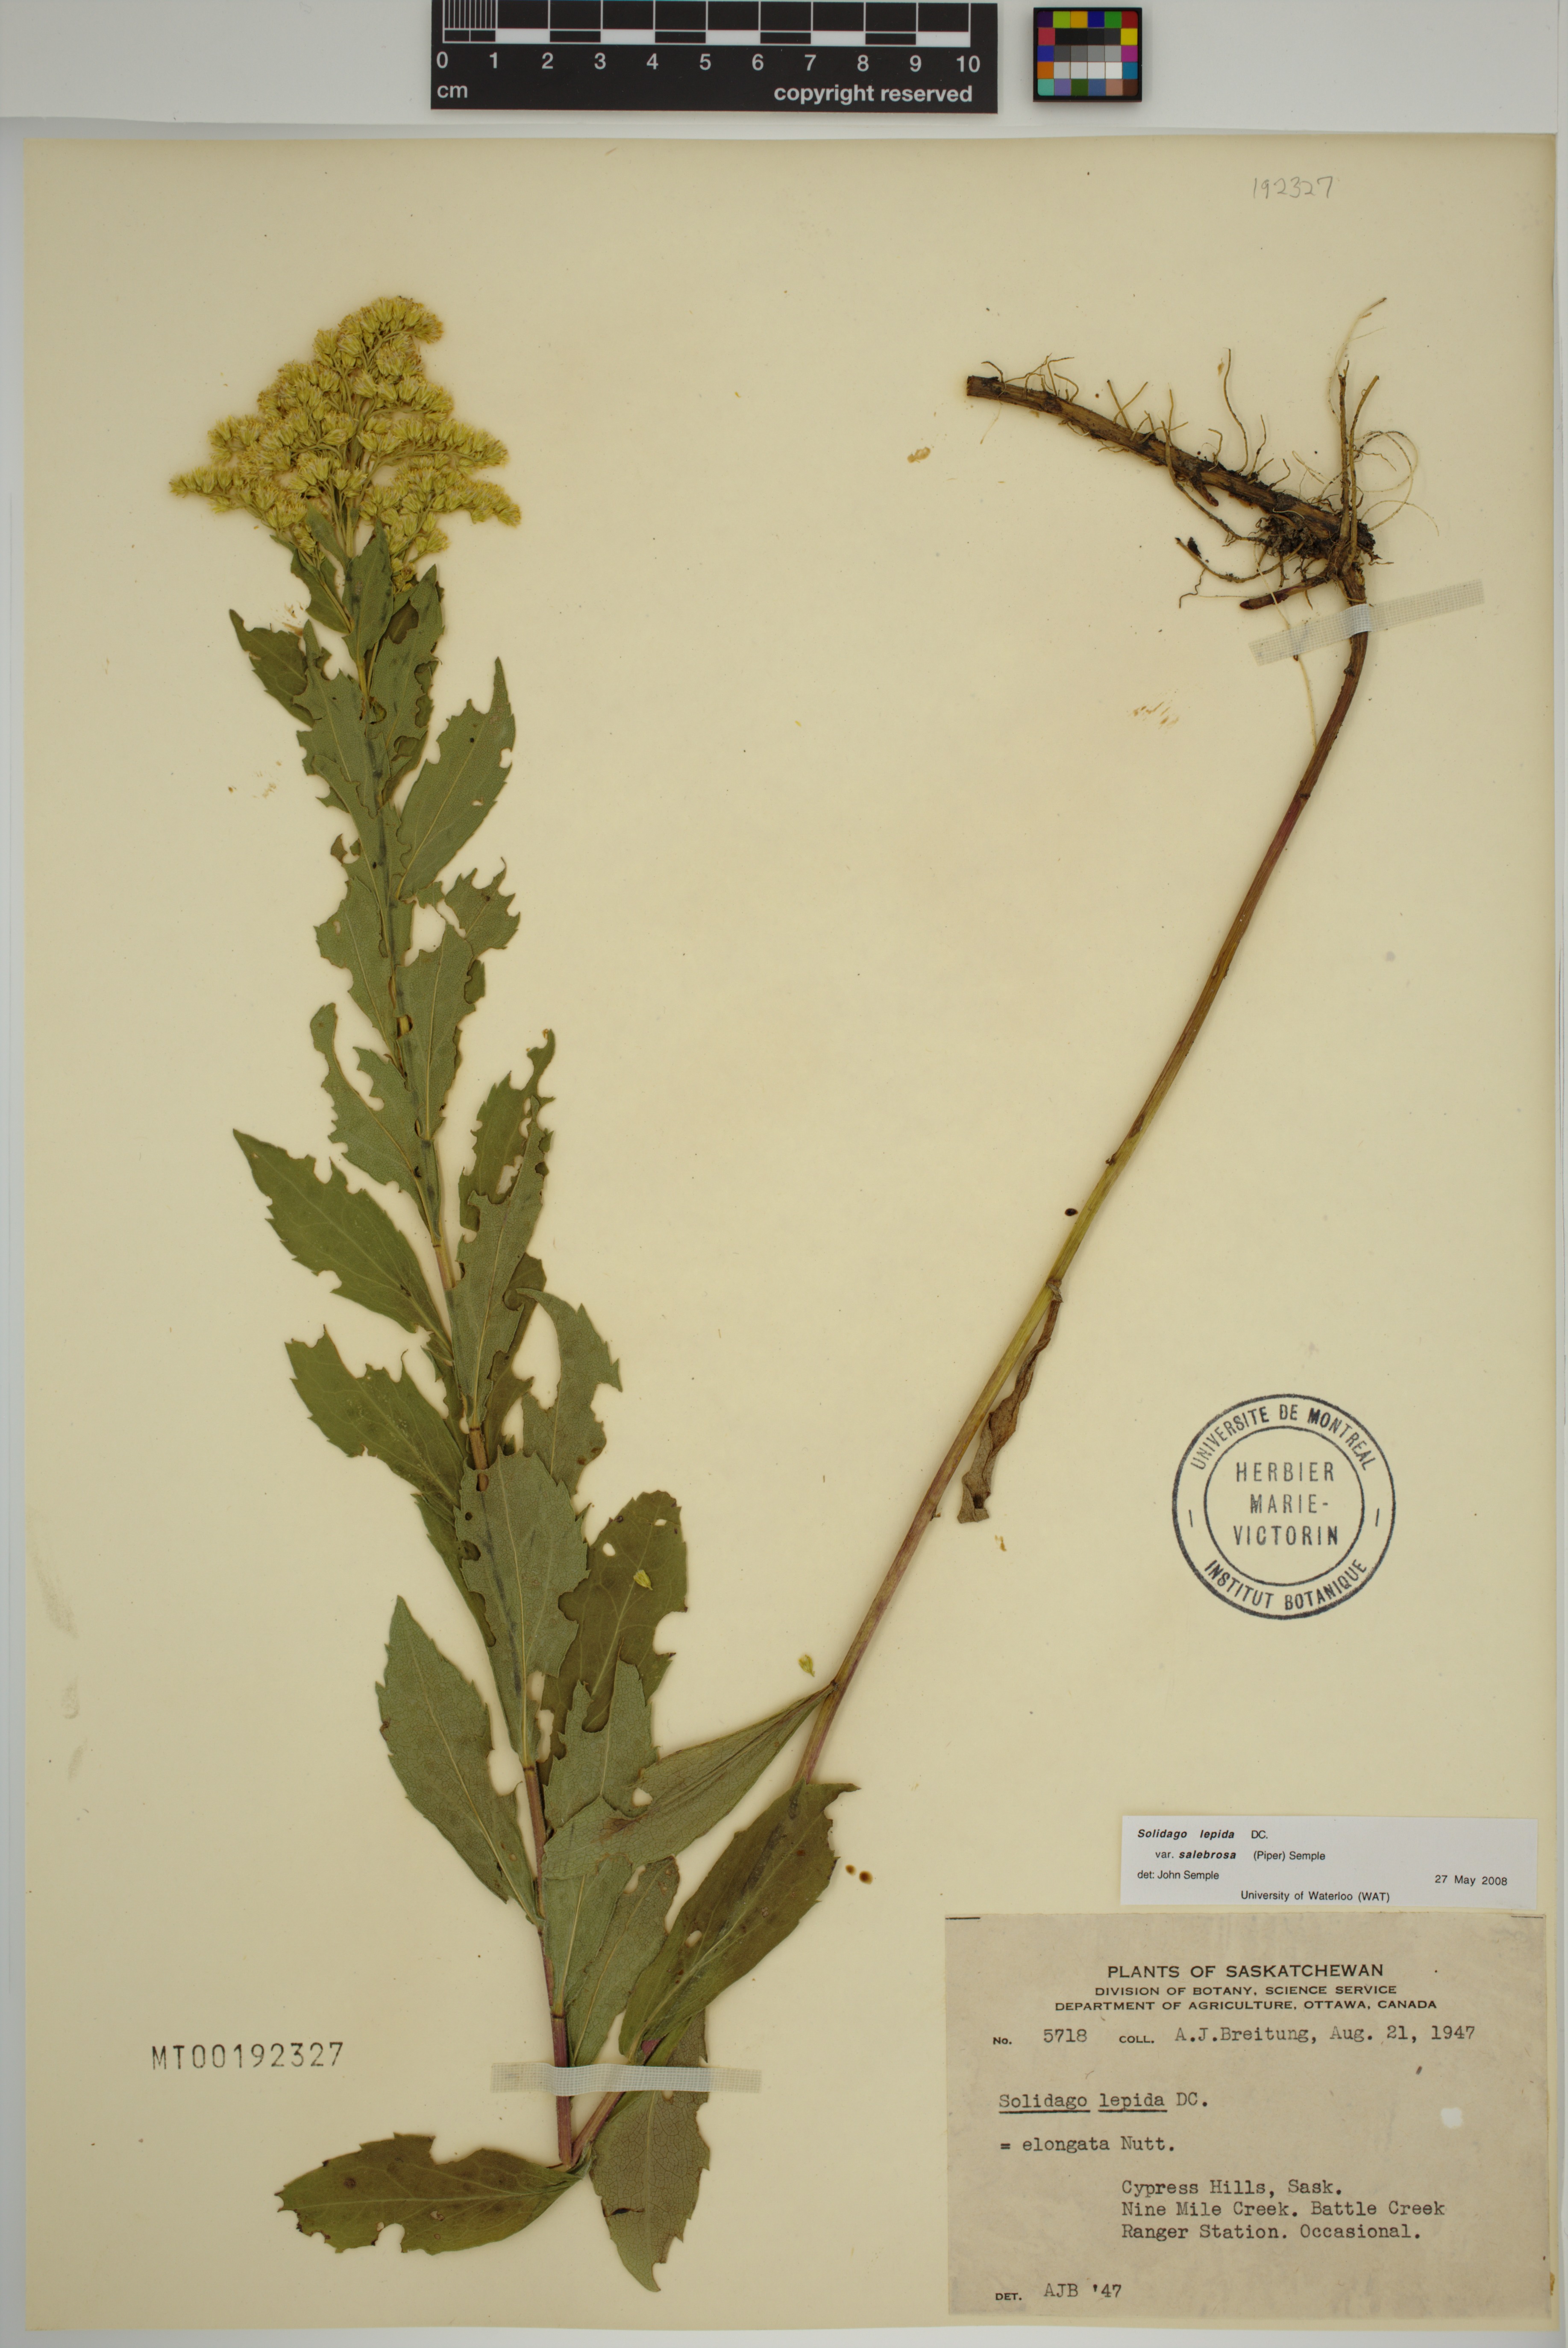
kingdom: Plantae
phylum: Tracheophyta
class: Magnoliopsida
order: Asterales
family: Asteraceae
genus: Solidago
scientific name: Solidago lepida
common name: Western canada goldenrod
